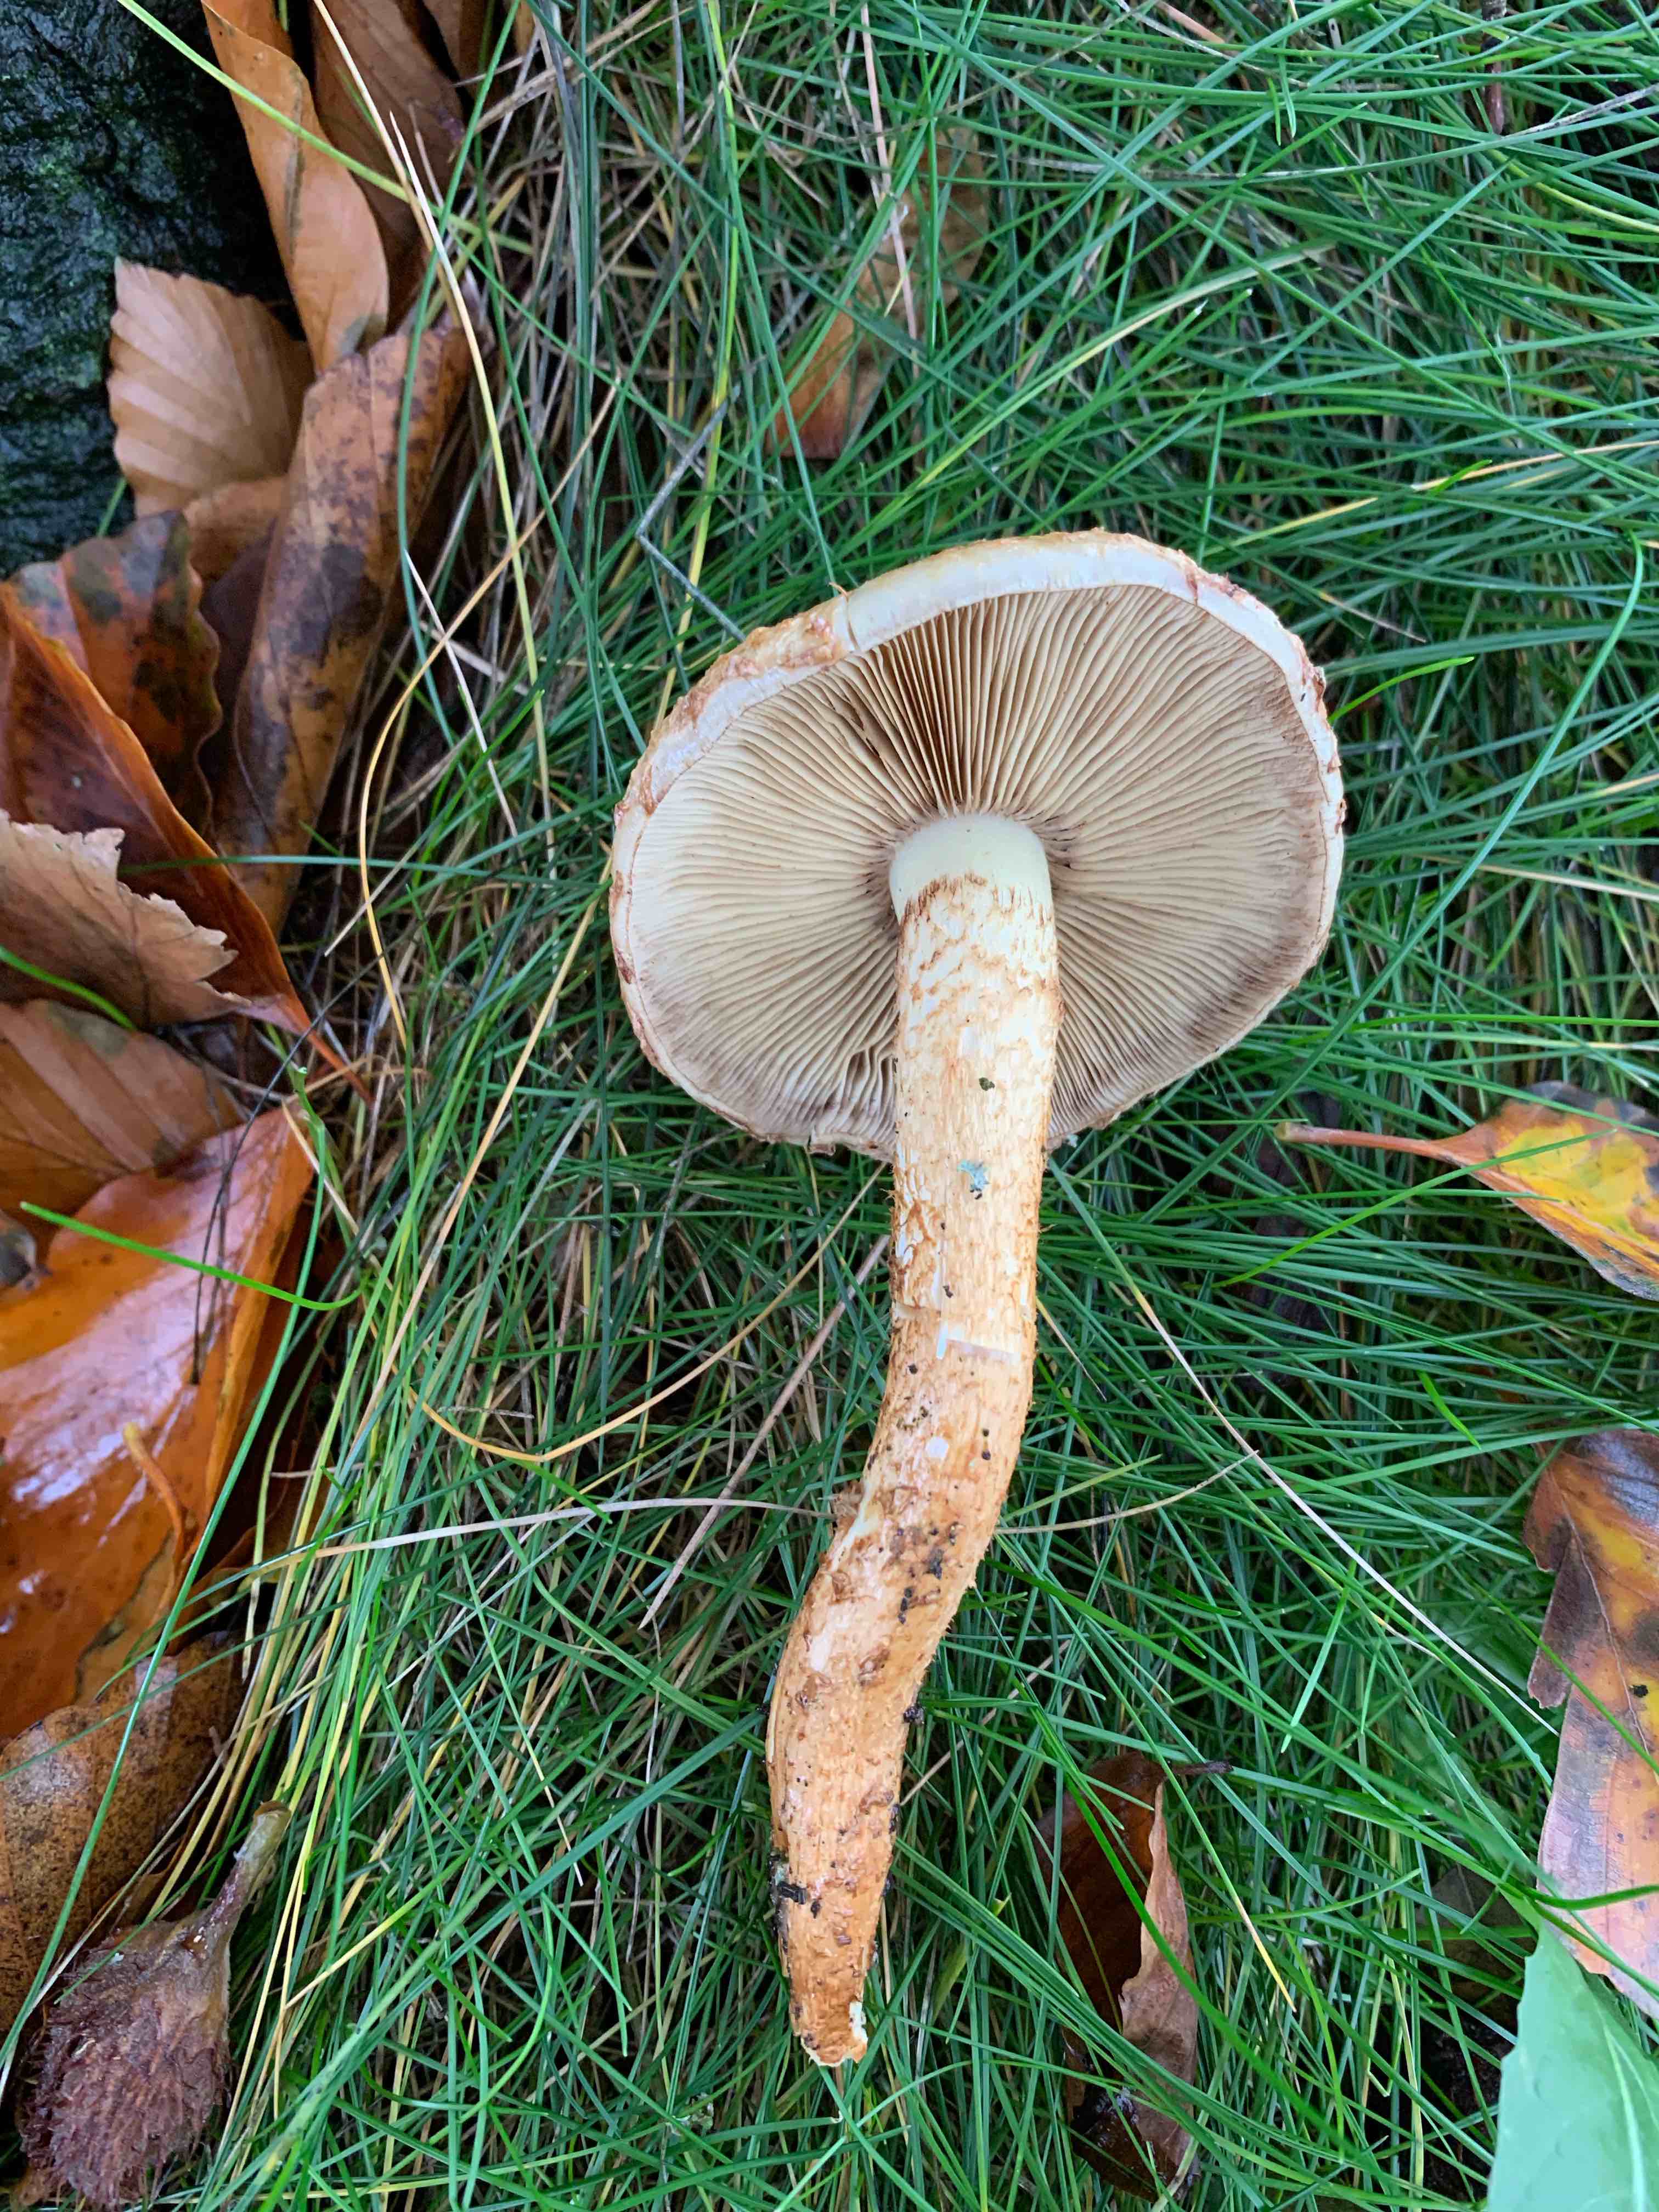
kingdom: Fungi
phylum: Basidiomycota
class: Agaricomycetes
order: Agaricales
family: Strophariaceae
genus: Pholiota
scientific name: Pholiota squarrosa
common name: krumskællet skælhat
